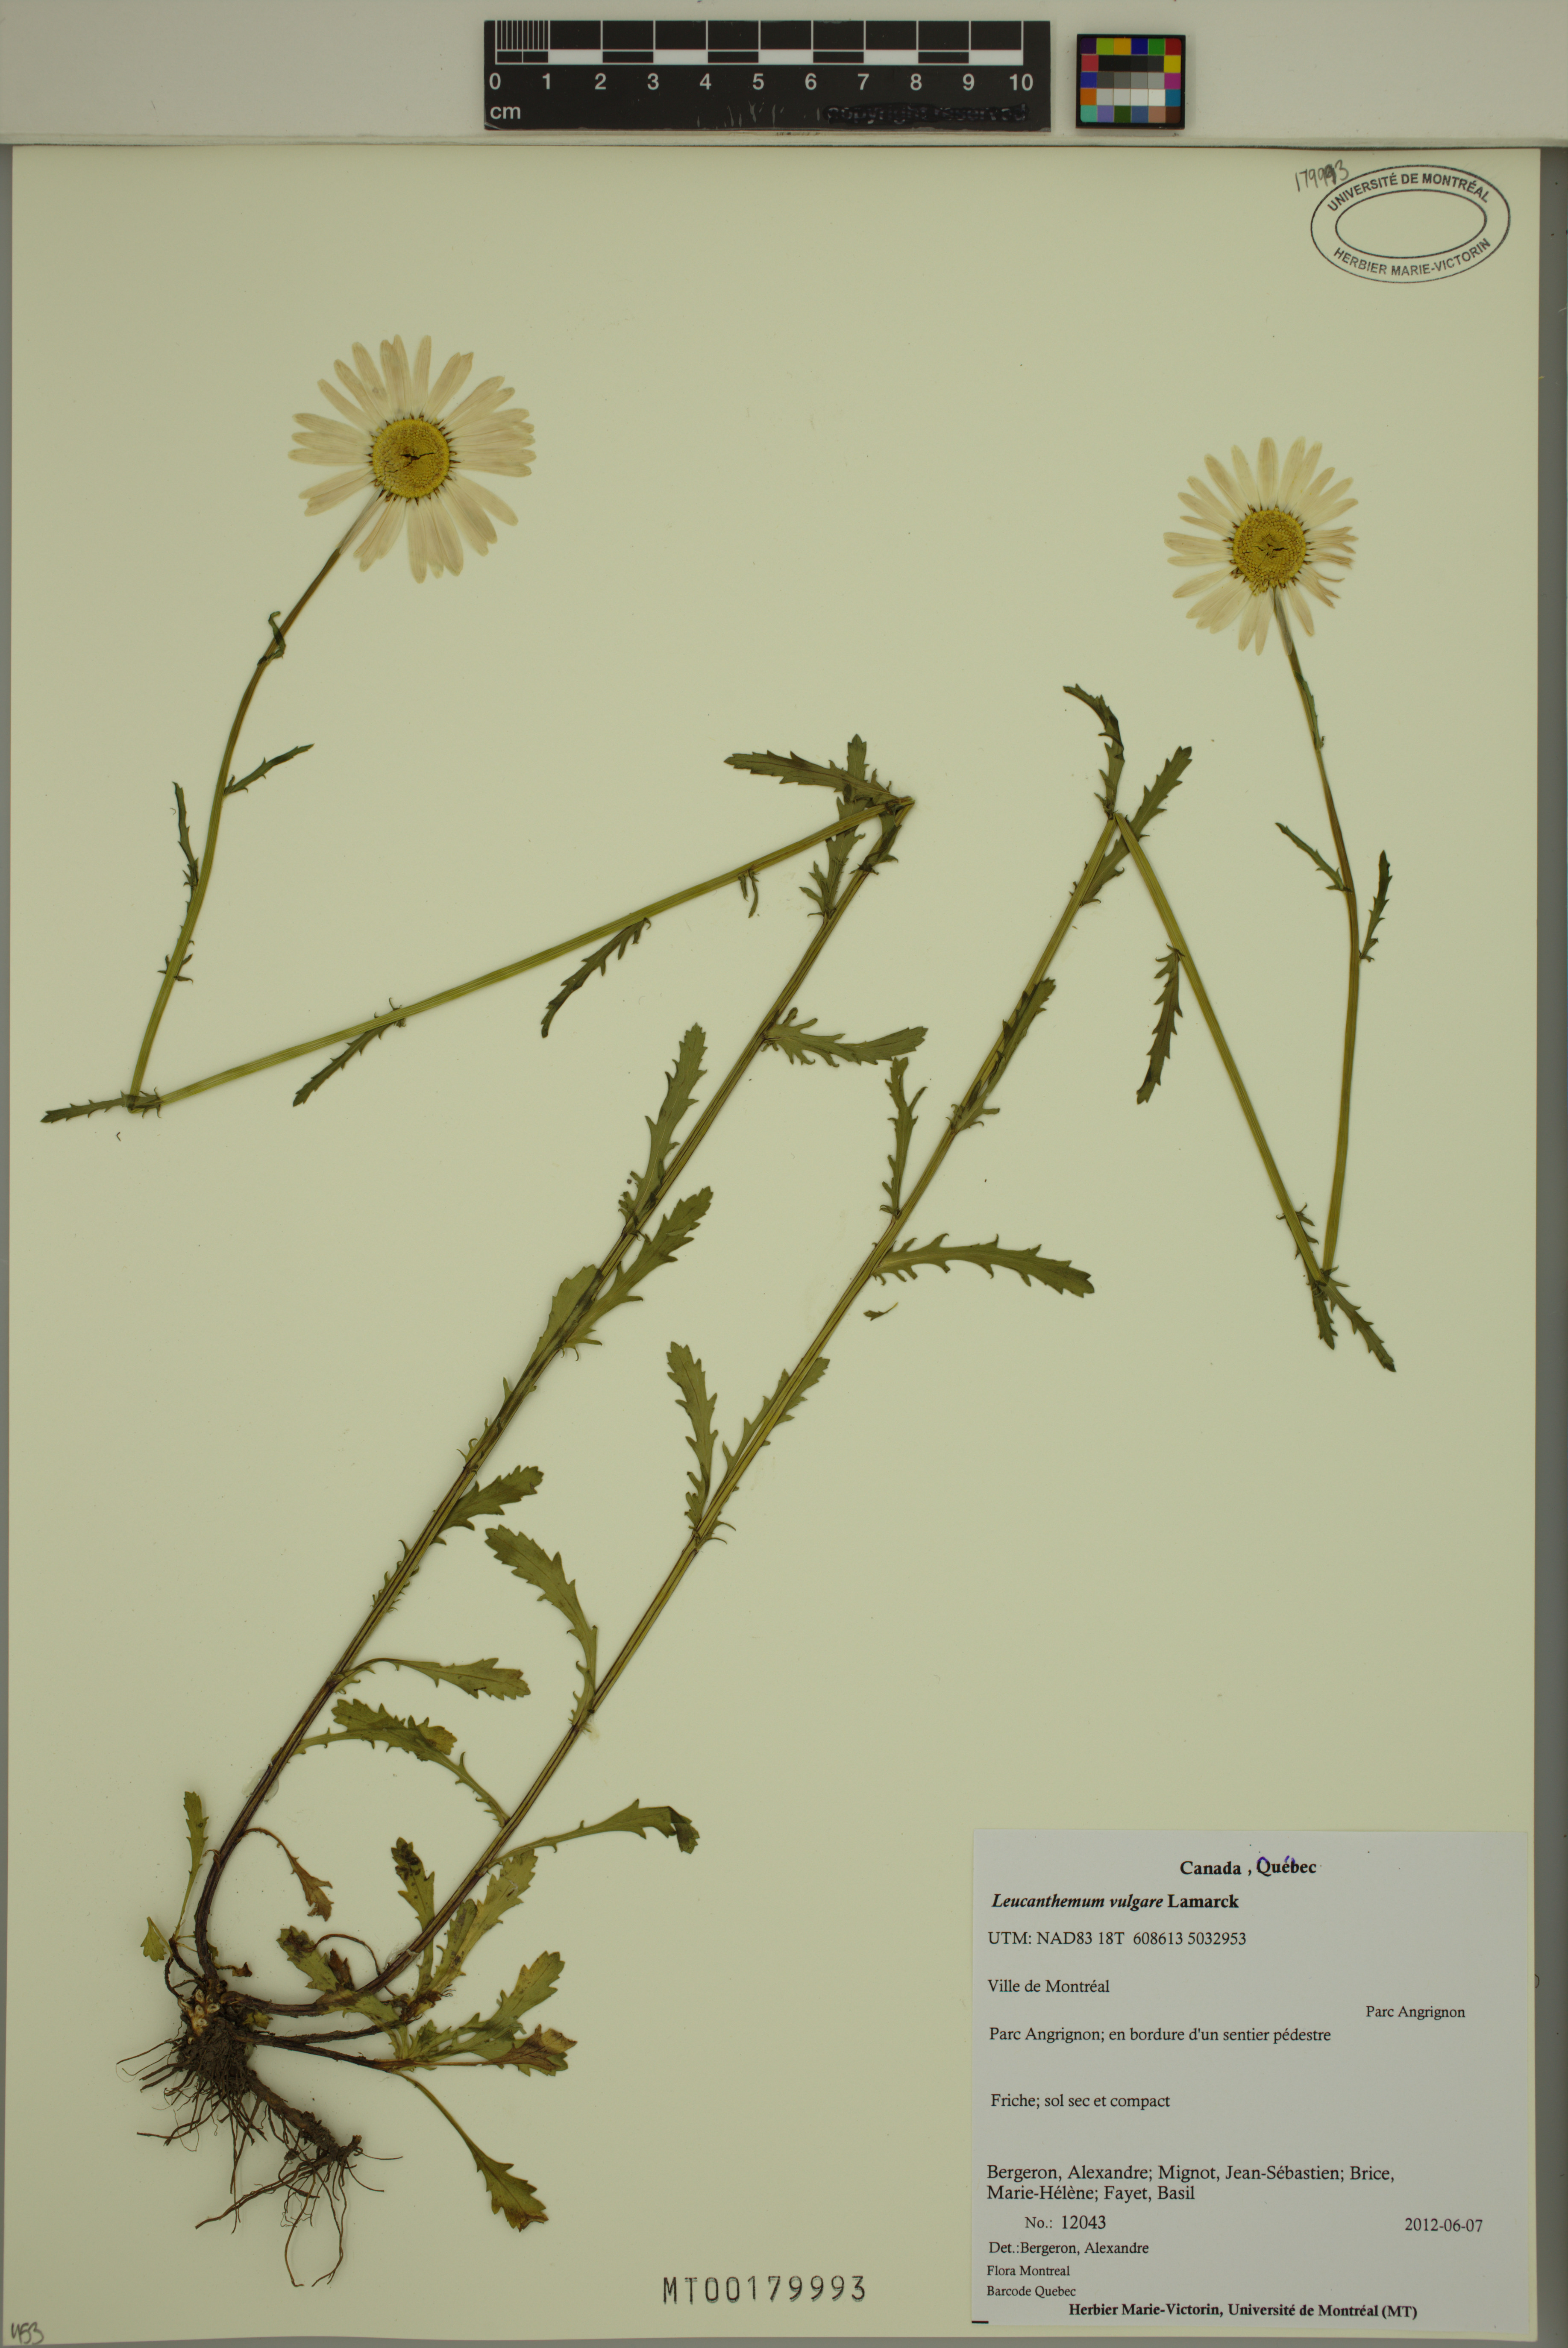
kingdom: Plantae
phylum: Tracheophyta
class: Magnoliopsida
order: Asterales
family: Asteraceae
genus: Leucanthemum
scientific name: Leucanthemum vulgare
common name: Oxeye daisy
